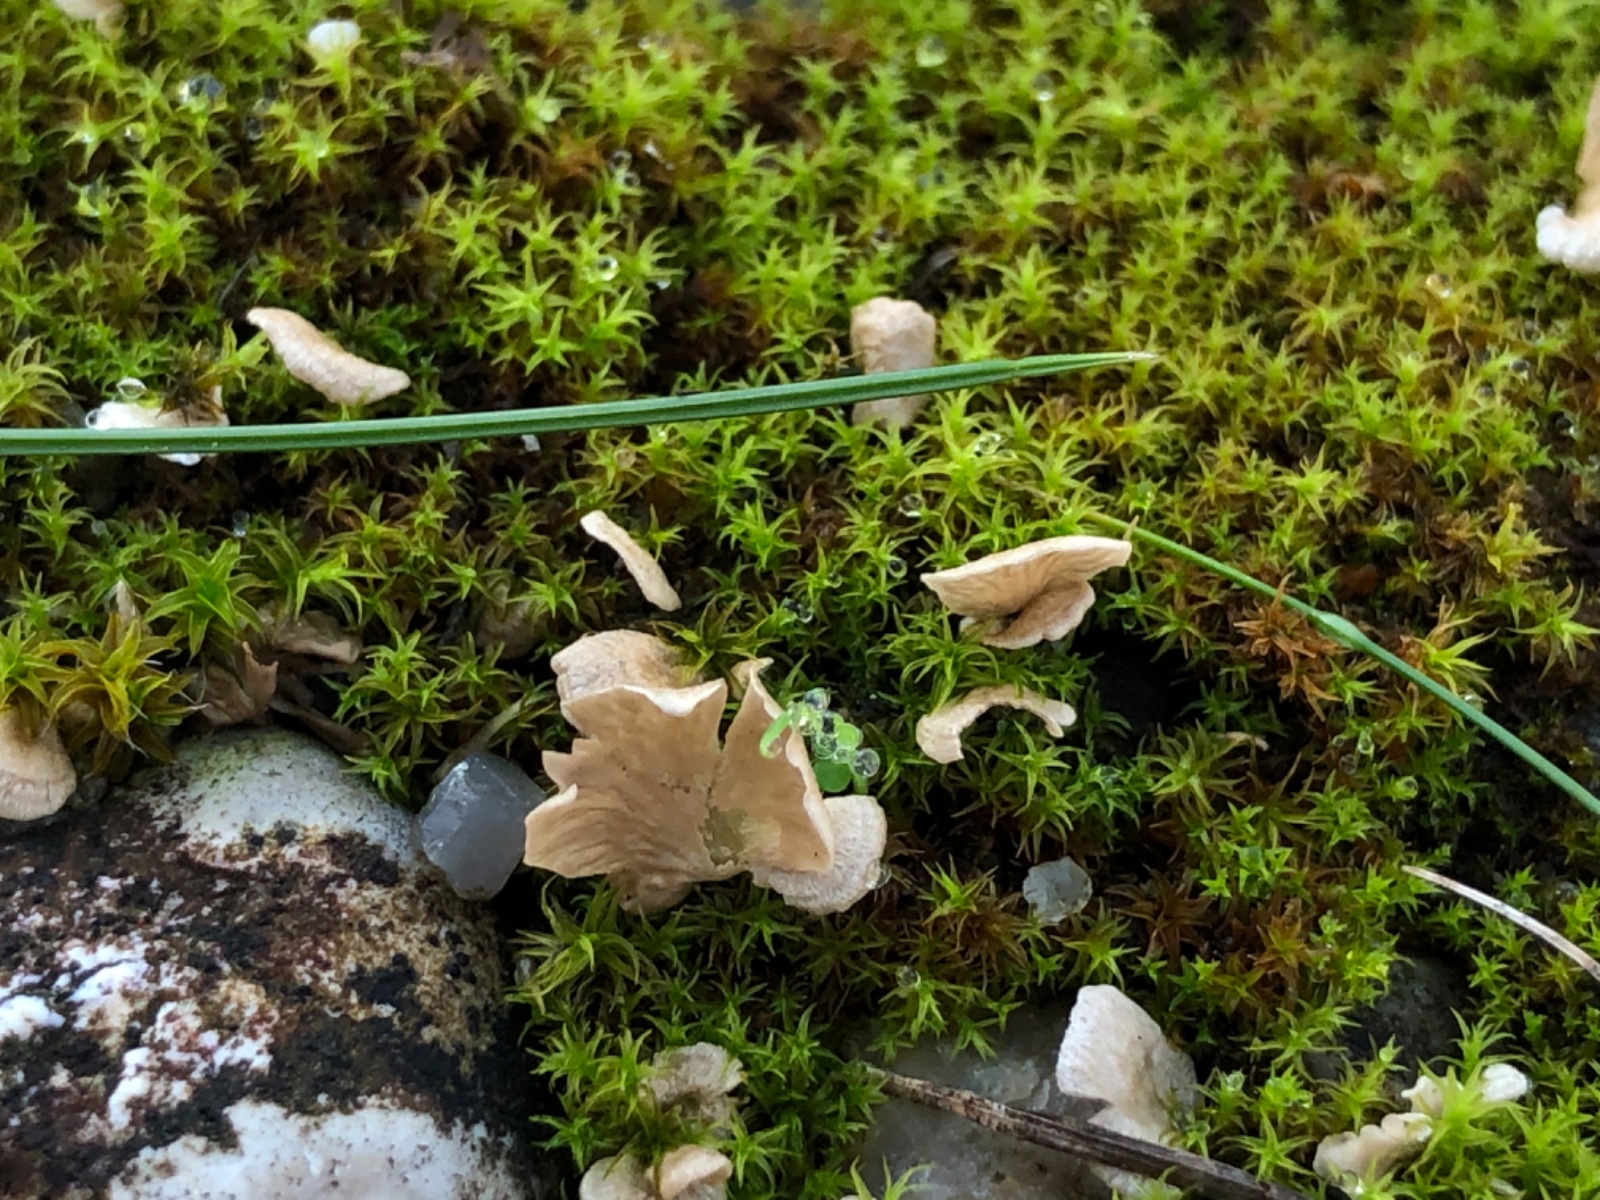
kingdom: Fungi
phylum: Basidiomycota
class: Agaricomycetes
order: Agaricales
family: Hygrophoraceae
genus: Arrhenia
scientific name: Arrhenia spathulata
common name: skæv fontænehat
